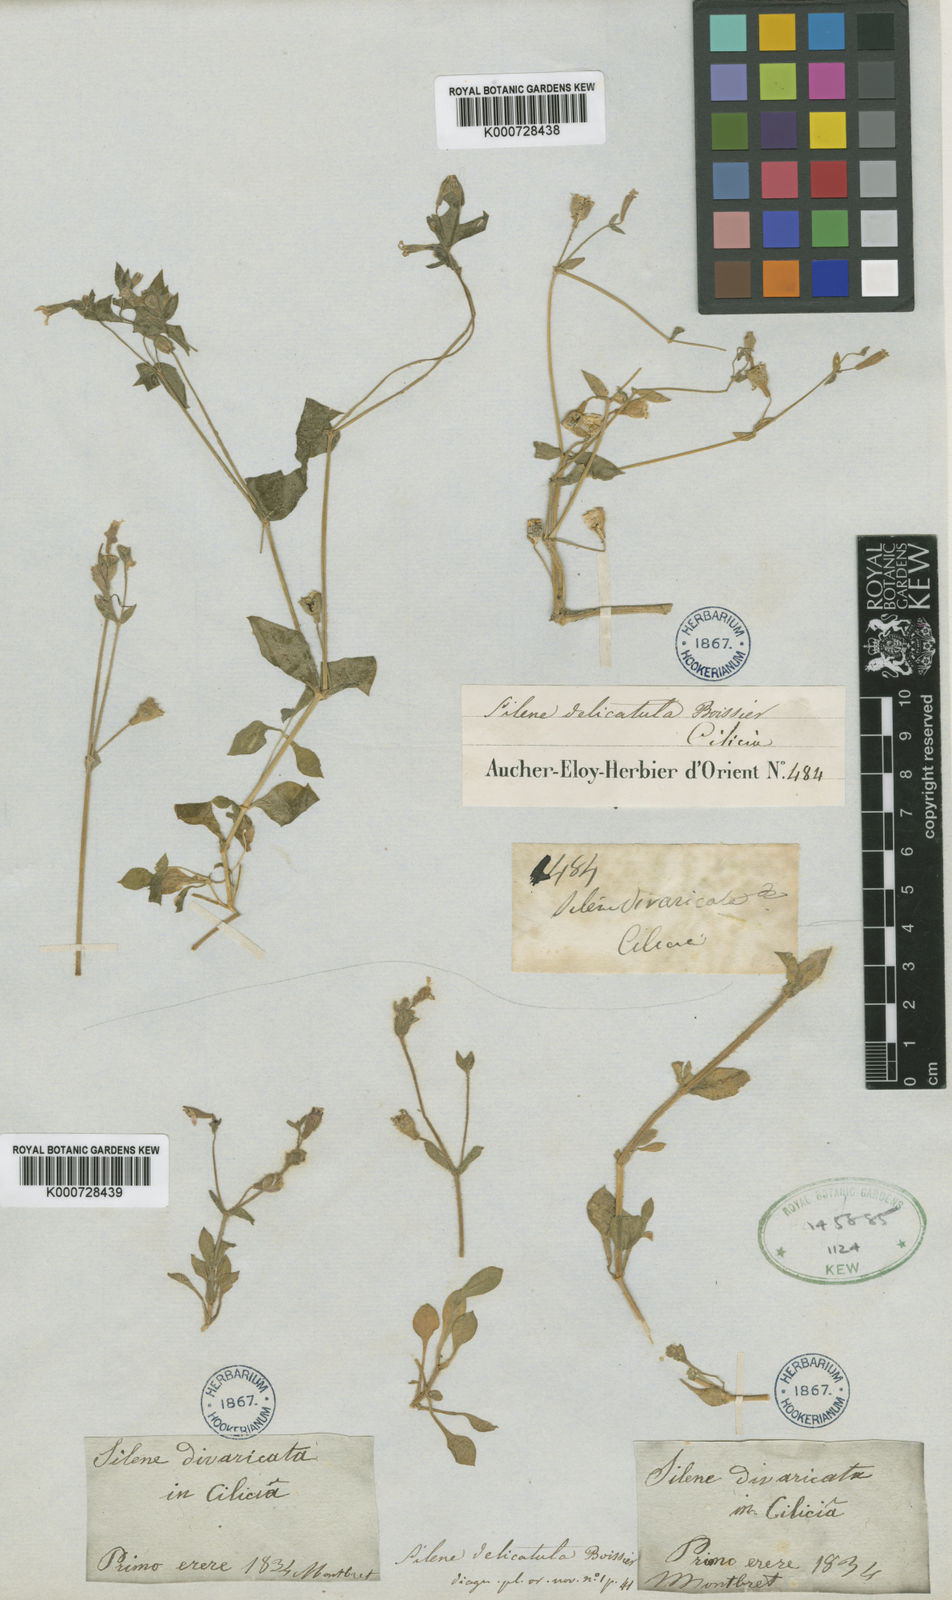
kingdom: Plantae
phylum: Tracheophyta
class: Magnoliopsida
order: Caryophyllales
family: Caryophyllaceae
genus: Silene
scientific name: Silene delicatula
